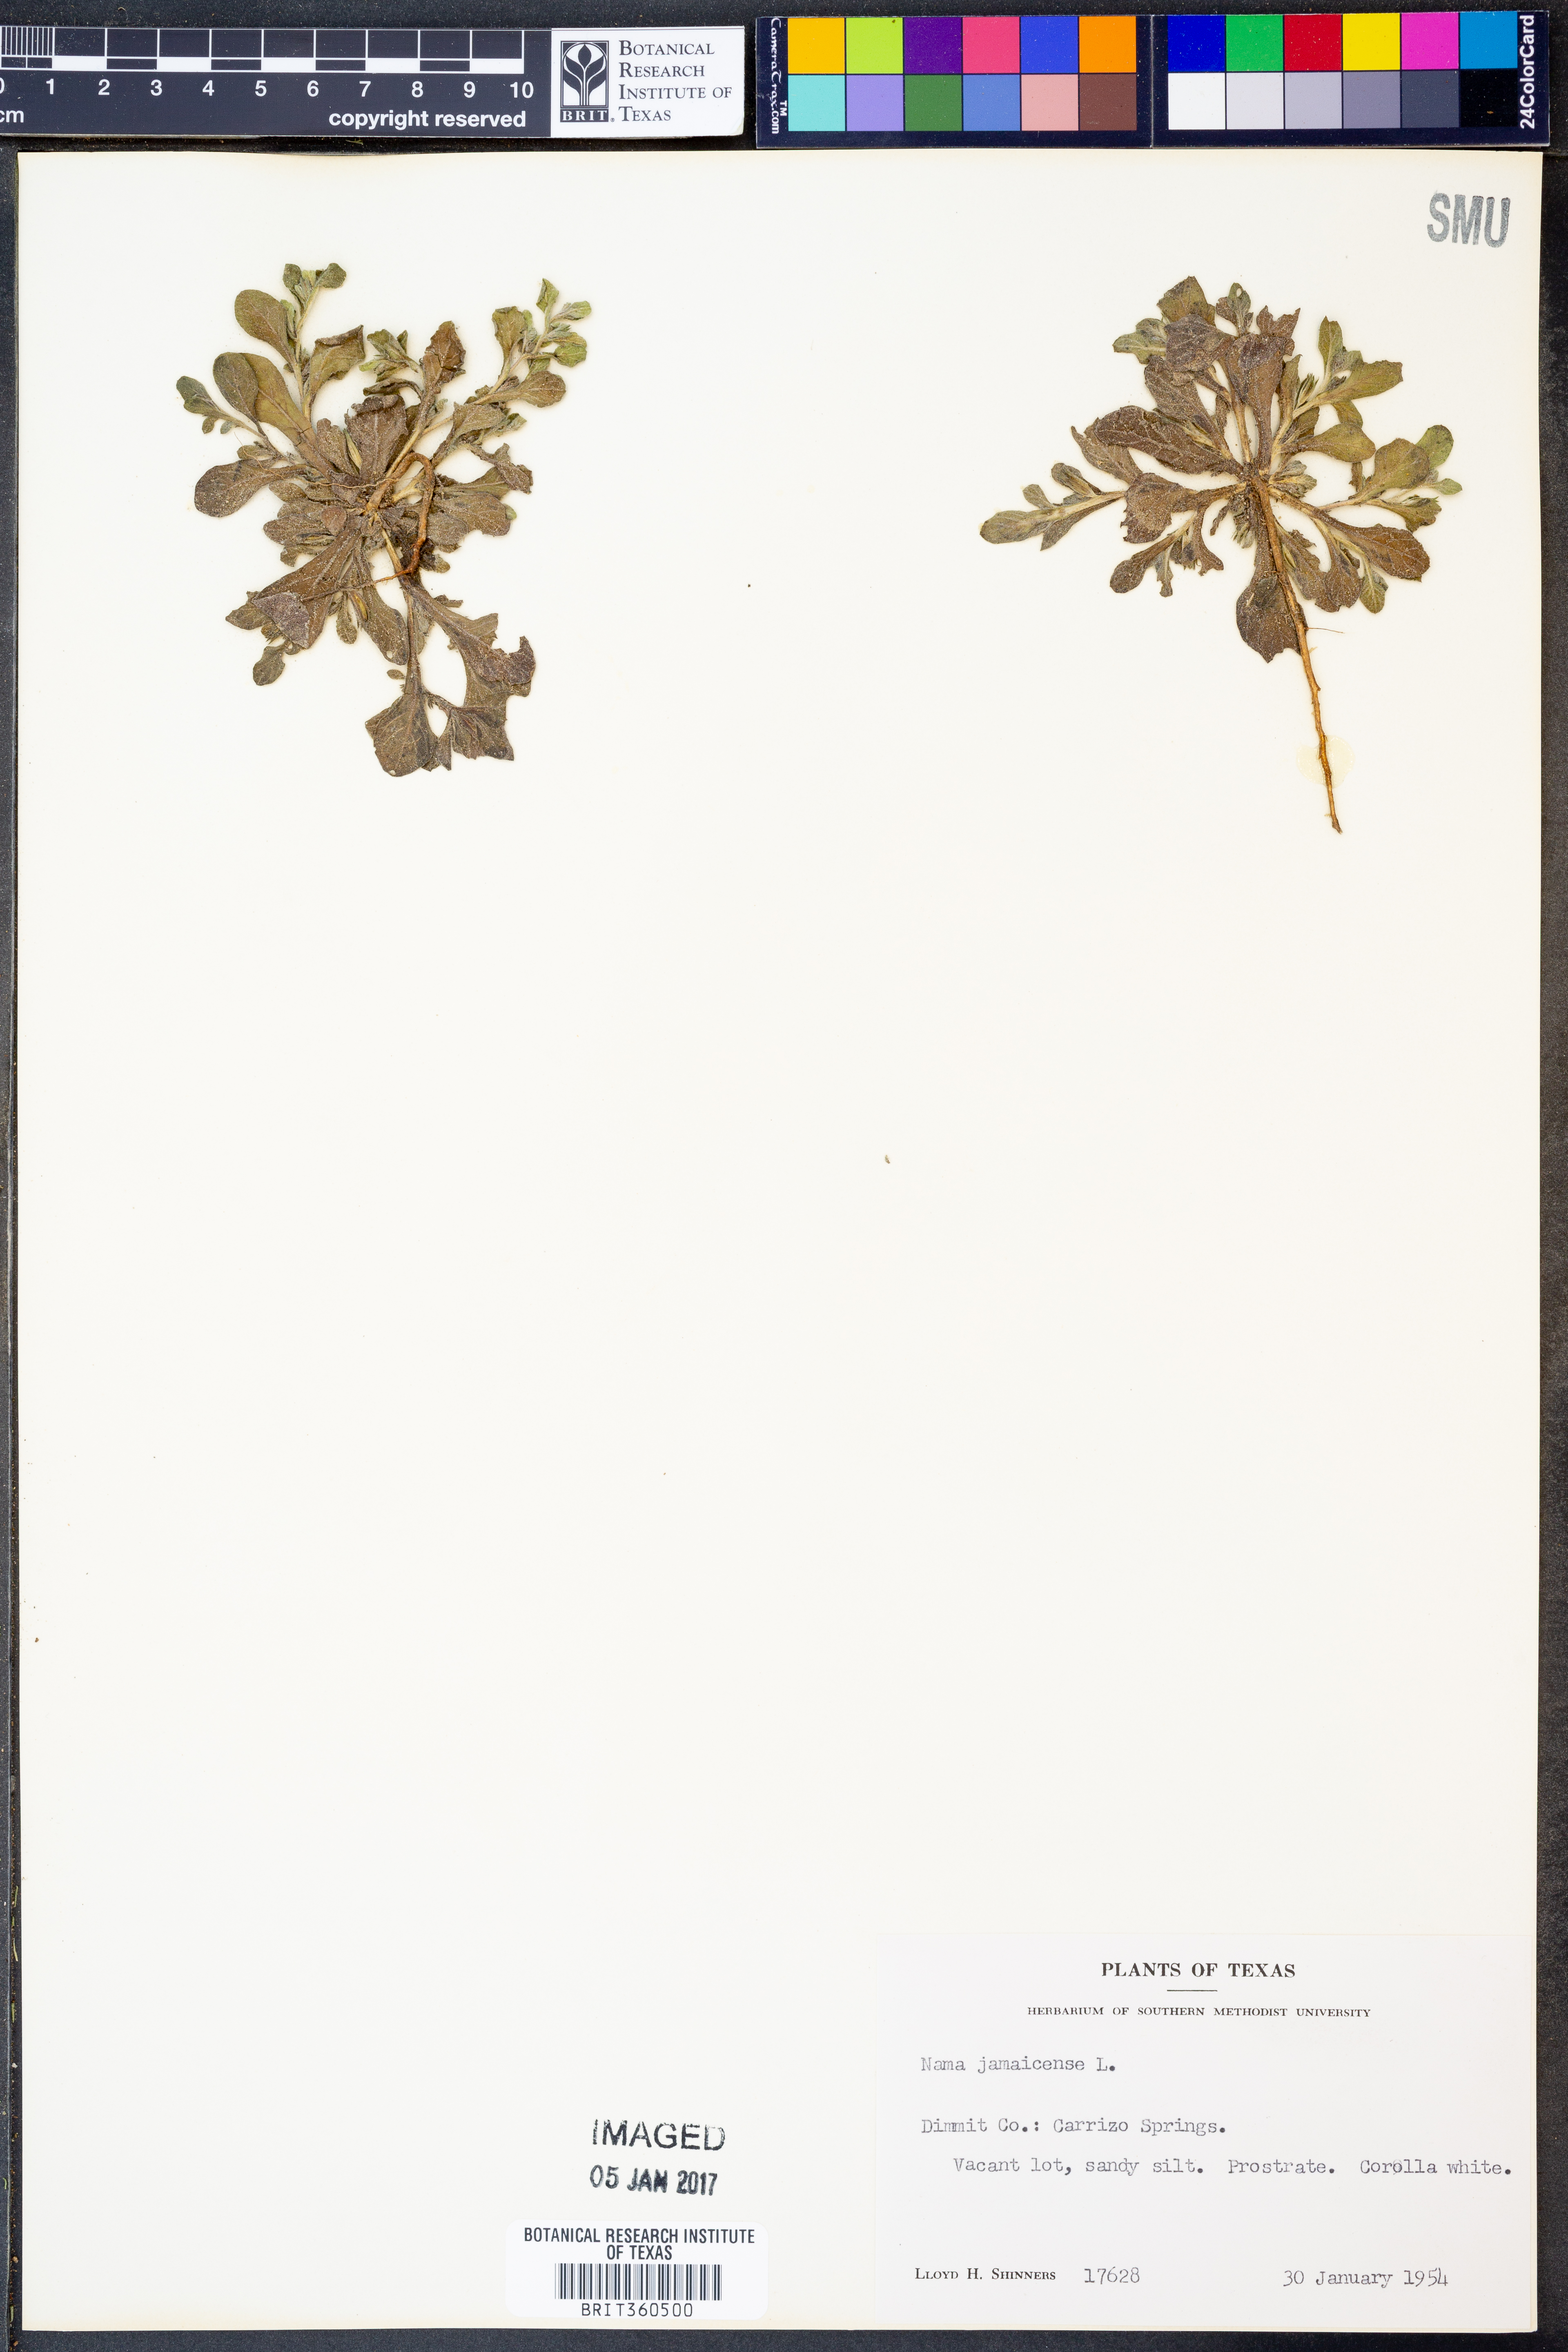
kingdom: Plantae
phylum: Tracheophyta
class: Magnoliopsida
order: Boraginales
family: Namaceae
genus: Nama
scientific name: Nama jamaicense
